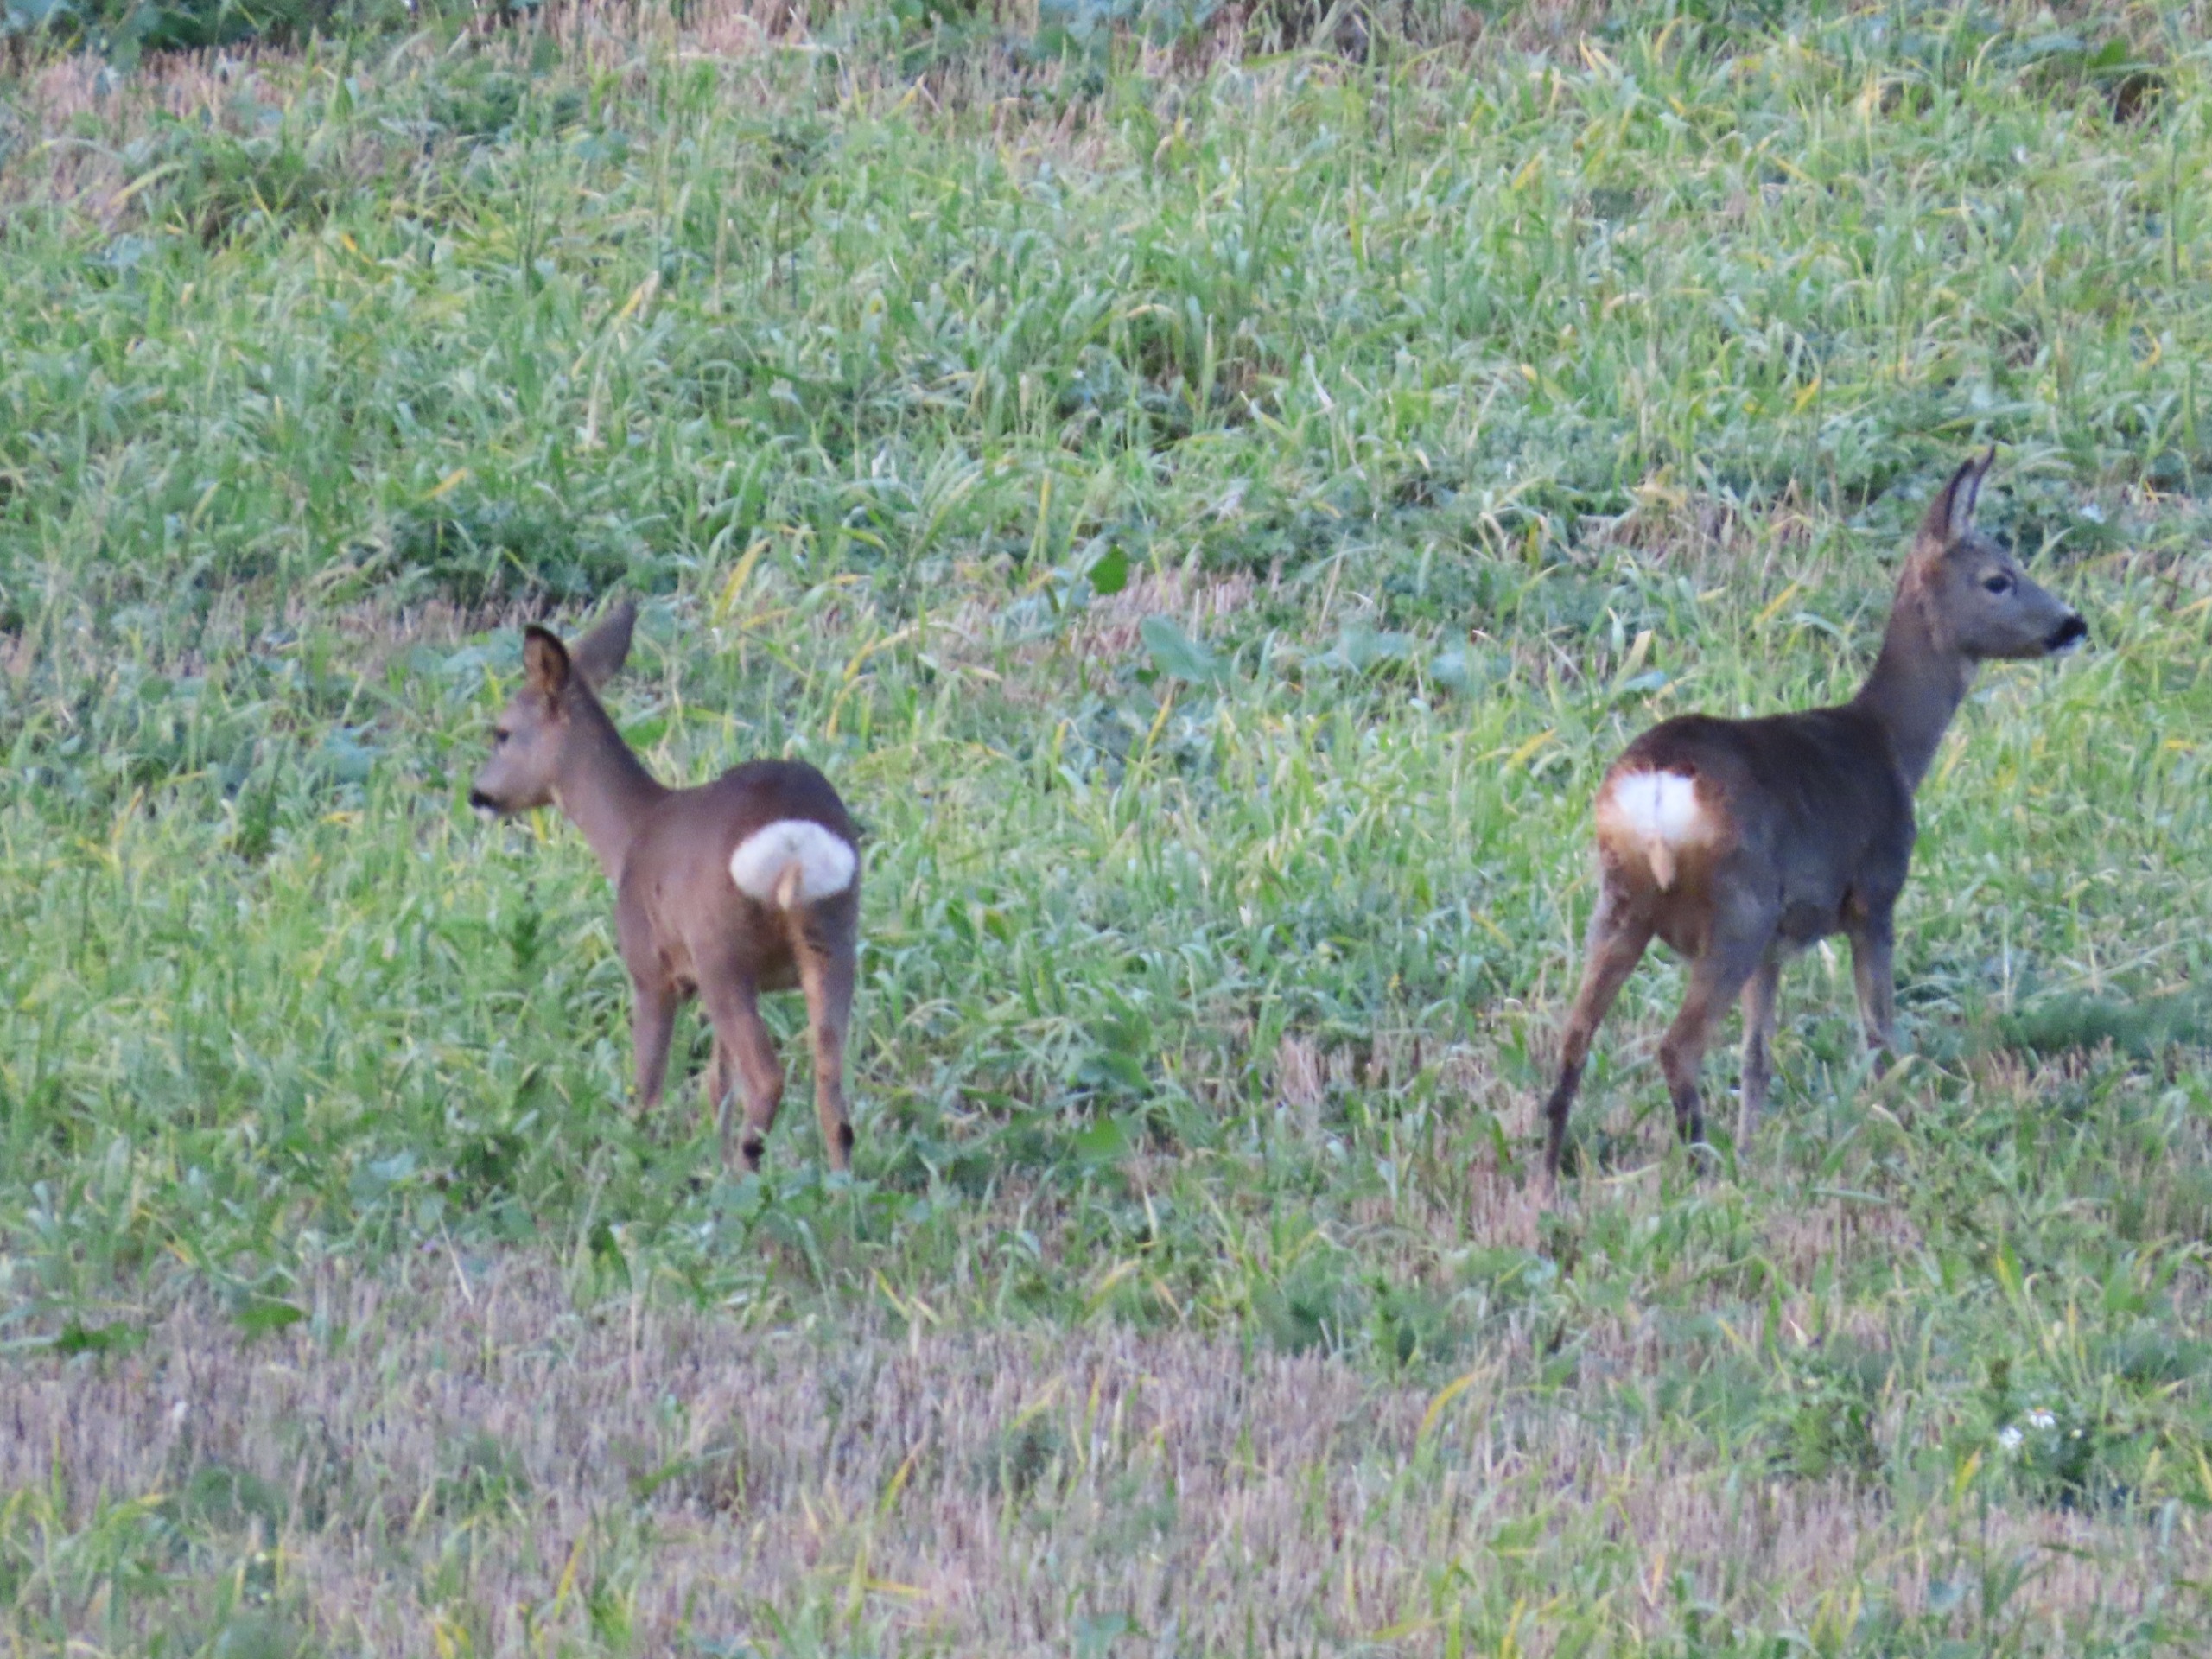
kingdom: Animalia
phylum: Chordata
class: Mammalia
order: Artiodactyla
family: Cervidae
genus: Capreolus
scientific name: Capreolus capreolus
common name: Rådyr
